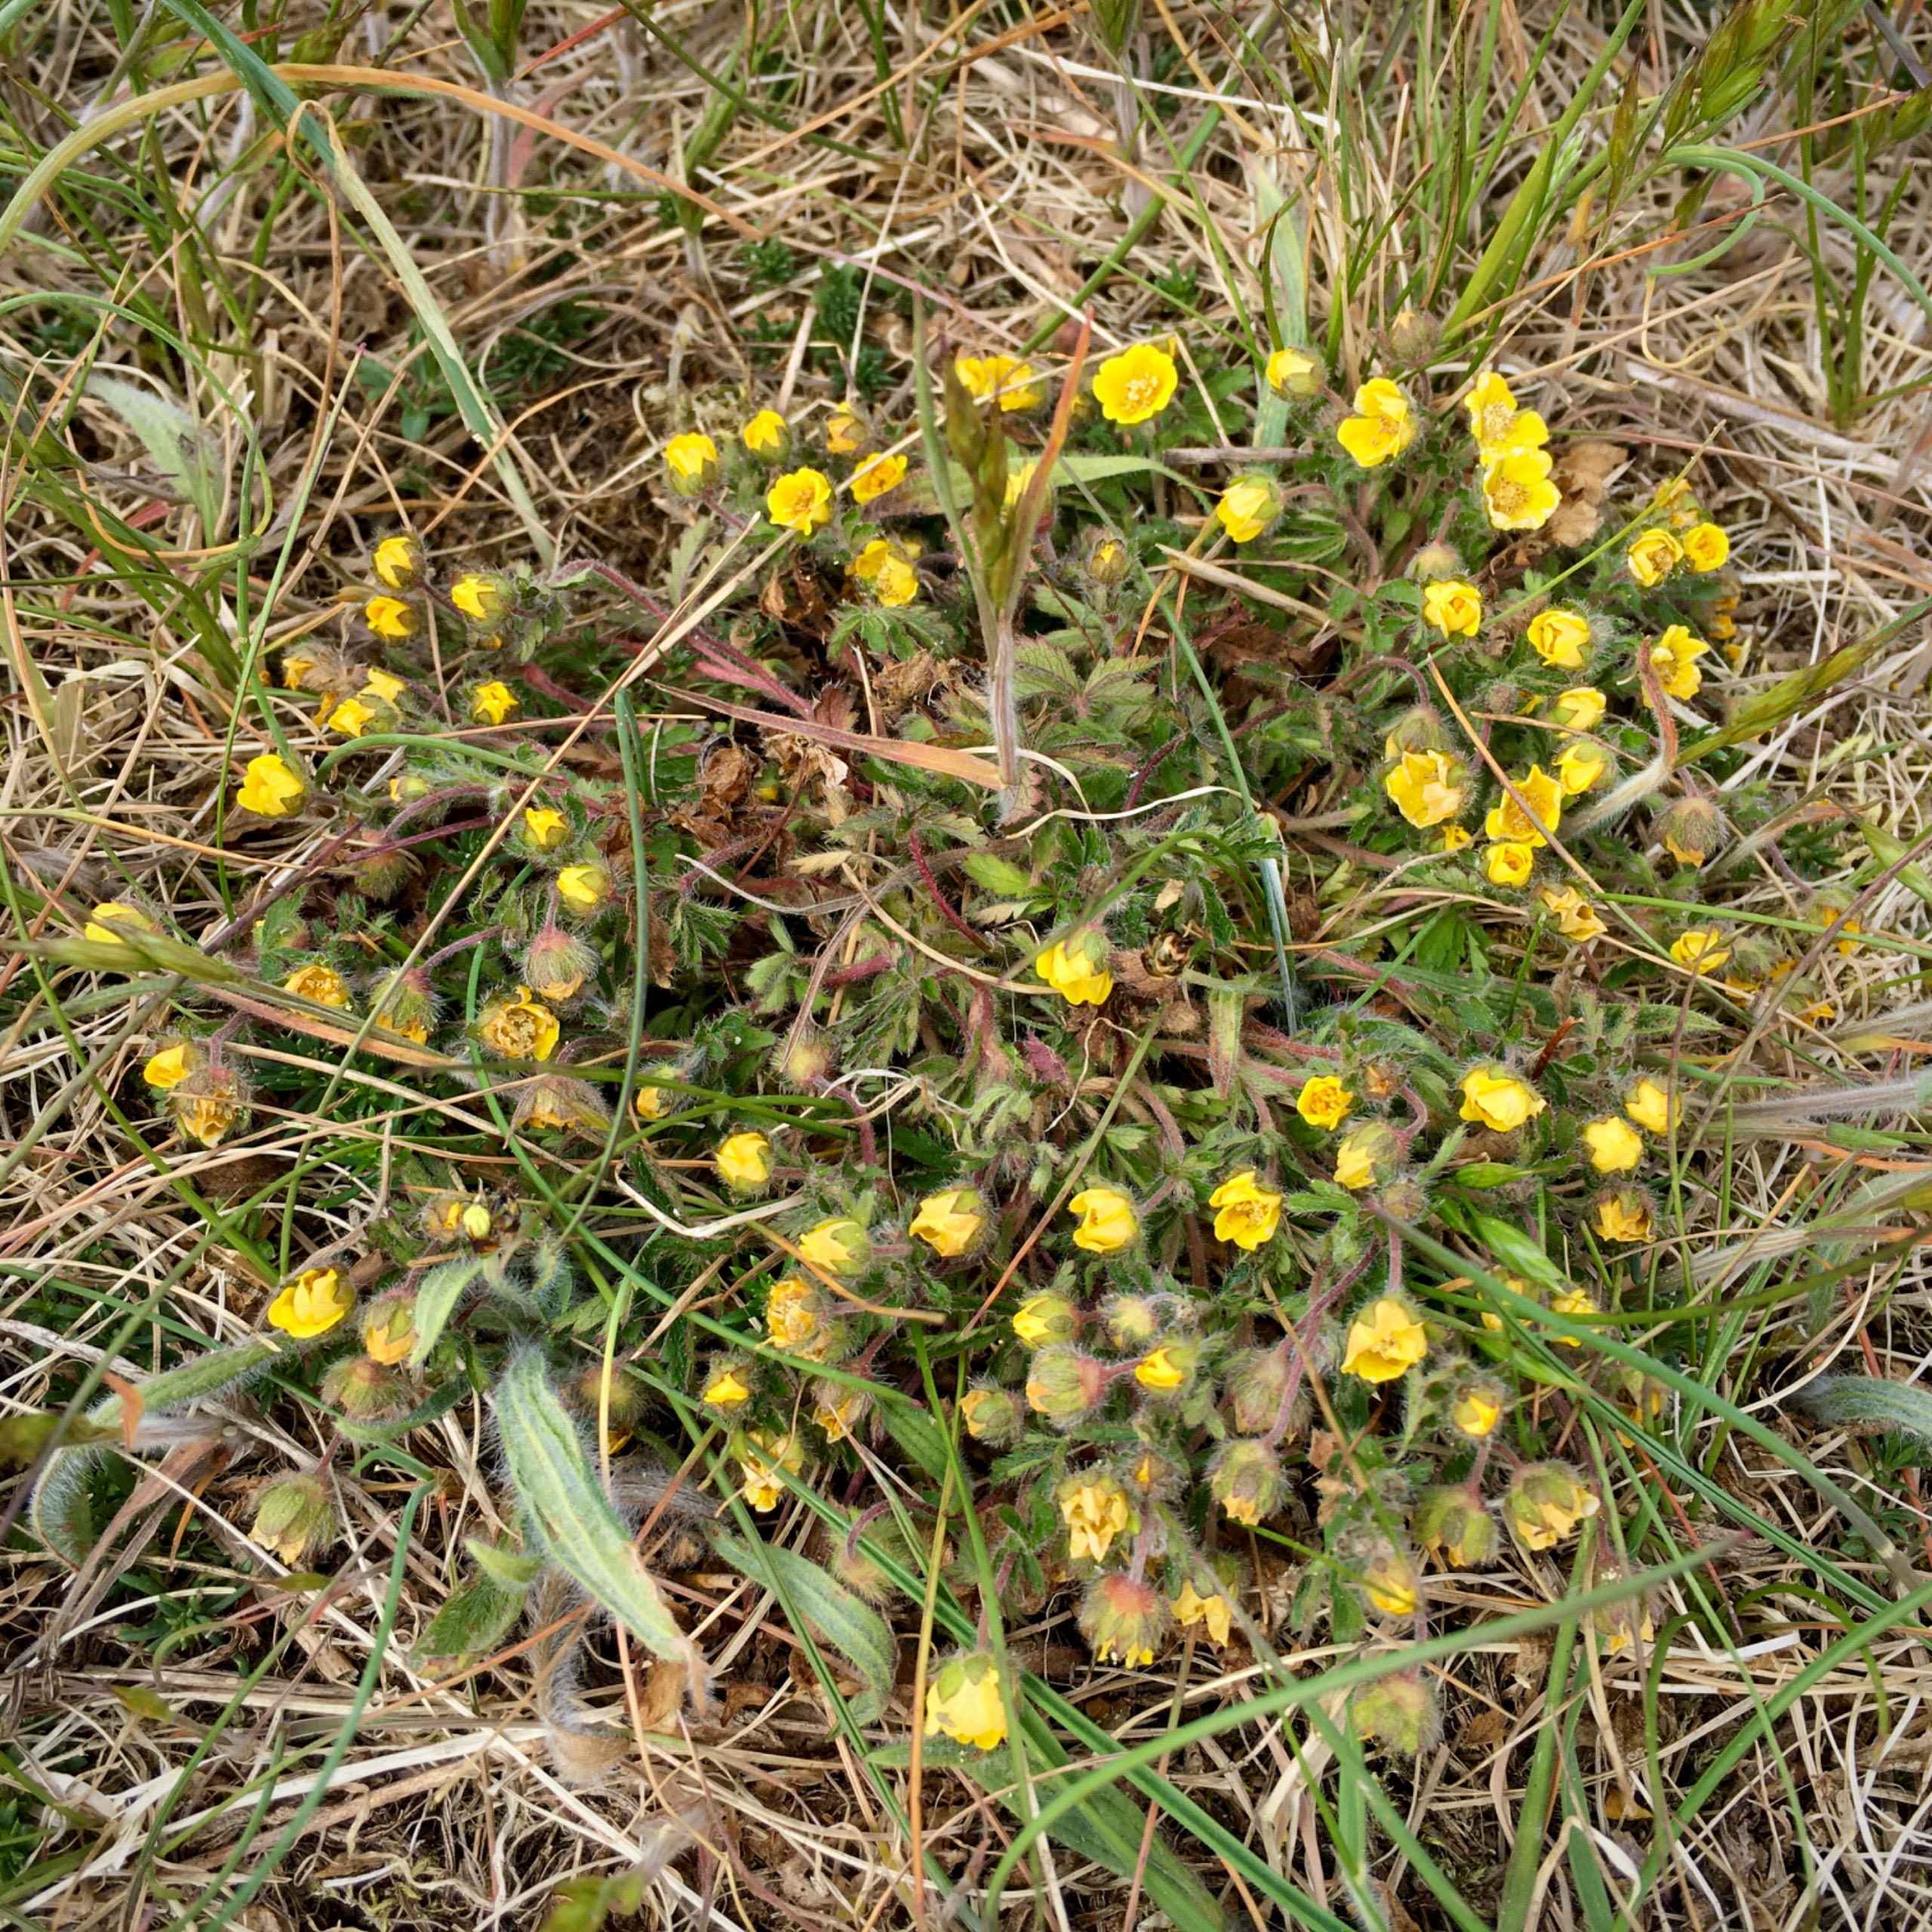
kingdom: Plantae
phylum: Tracheophyta
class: Magnoliopsida
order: Rosales
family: Rosaceae
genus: Potentilla
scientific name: Potentilla heptaphylla
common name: Mat potentil
